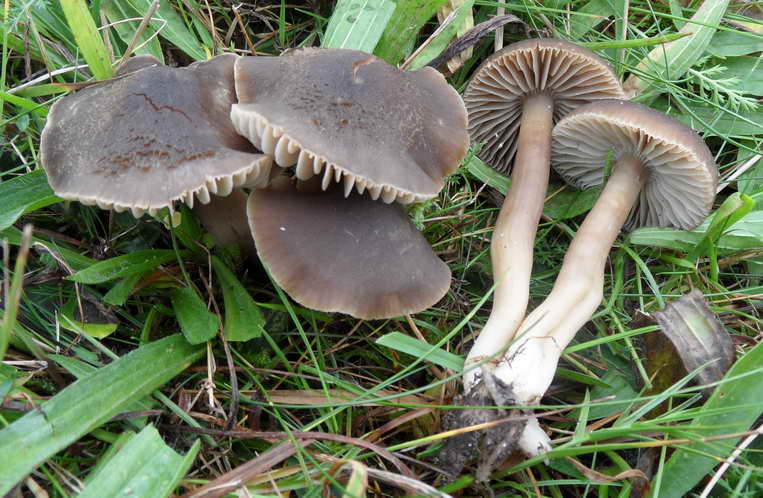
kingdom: Fungi
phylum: Basidiomycota
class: Agaricomycetes
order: Agaricales
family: Hygrophoraceae
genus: Neohygrocybe
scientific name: Neohygrocybe nitrata
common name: stinkende vokshat
